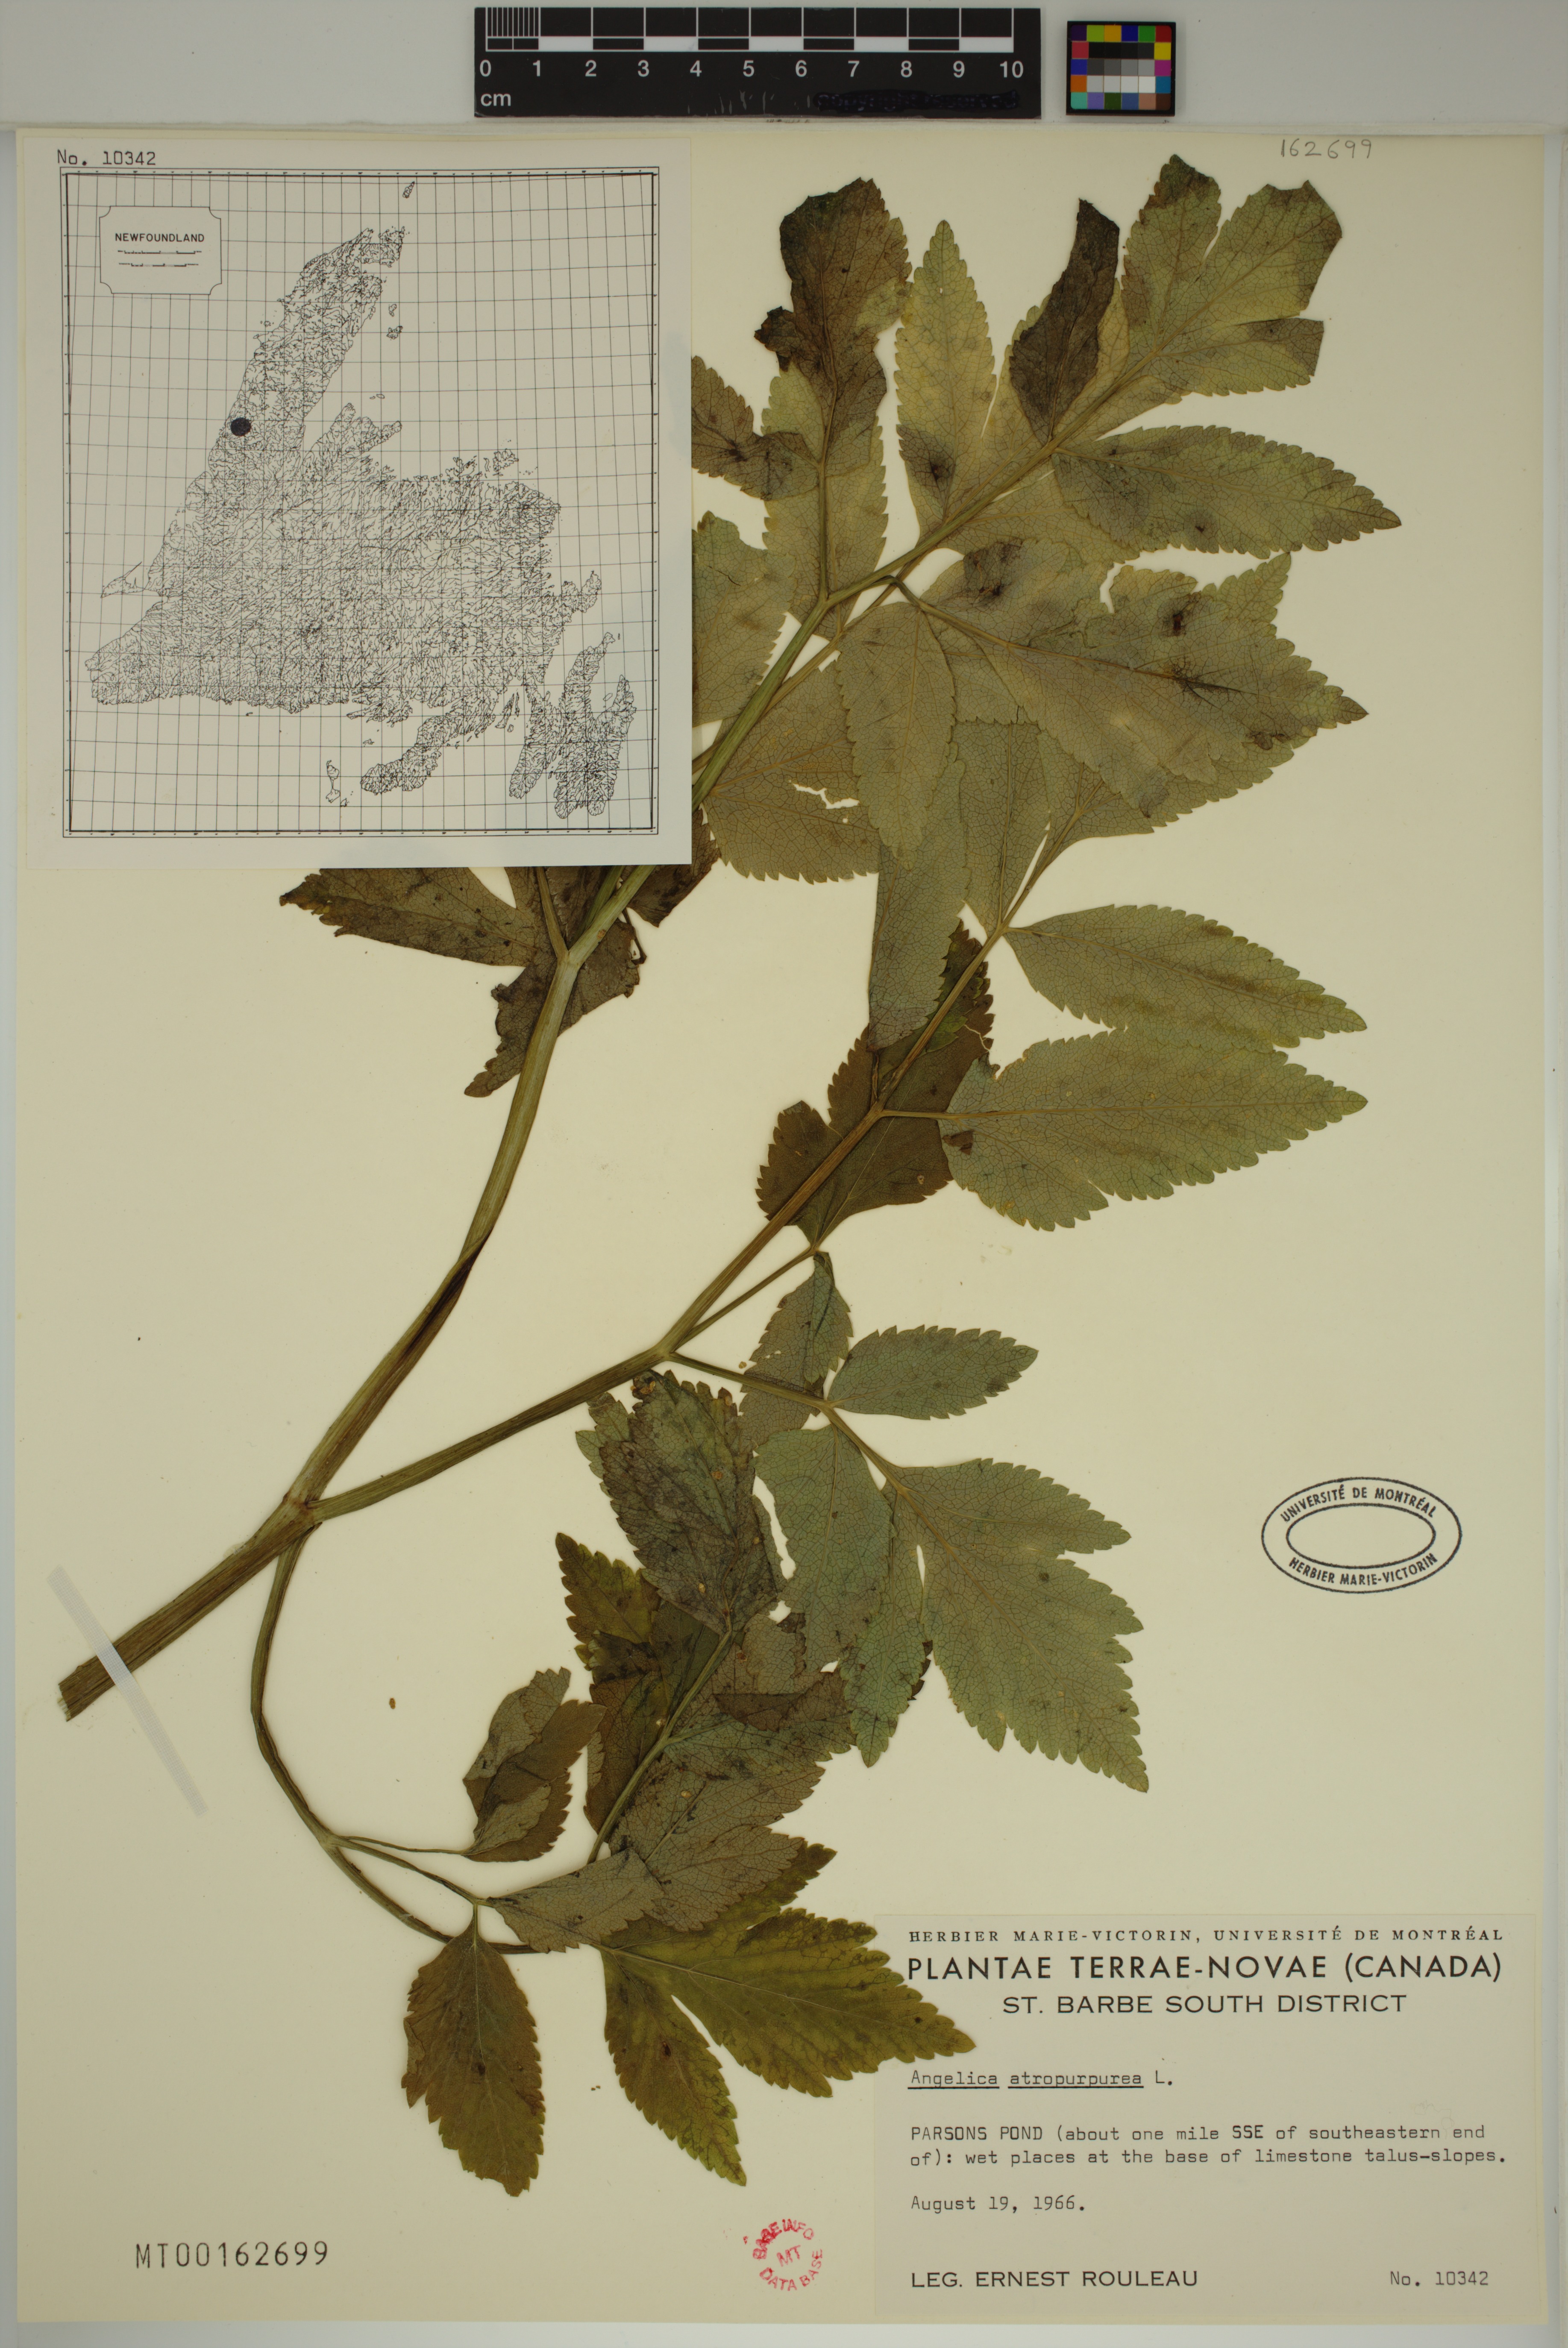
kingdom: Plantae
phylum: Tracheophyta
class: Magnoliopsida
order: Apiales
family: Apiaceae
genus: Angelica
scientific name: Angelica atropurpurea
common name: Great angelica
